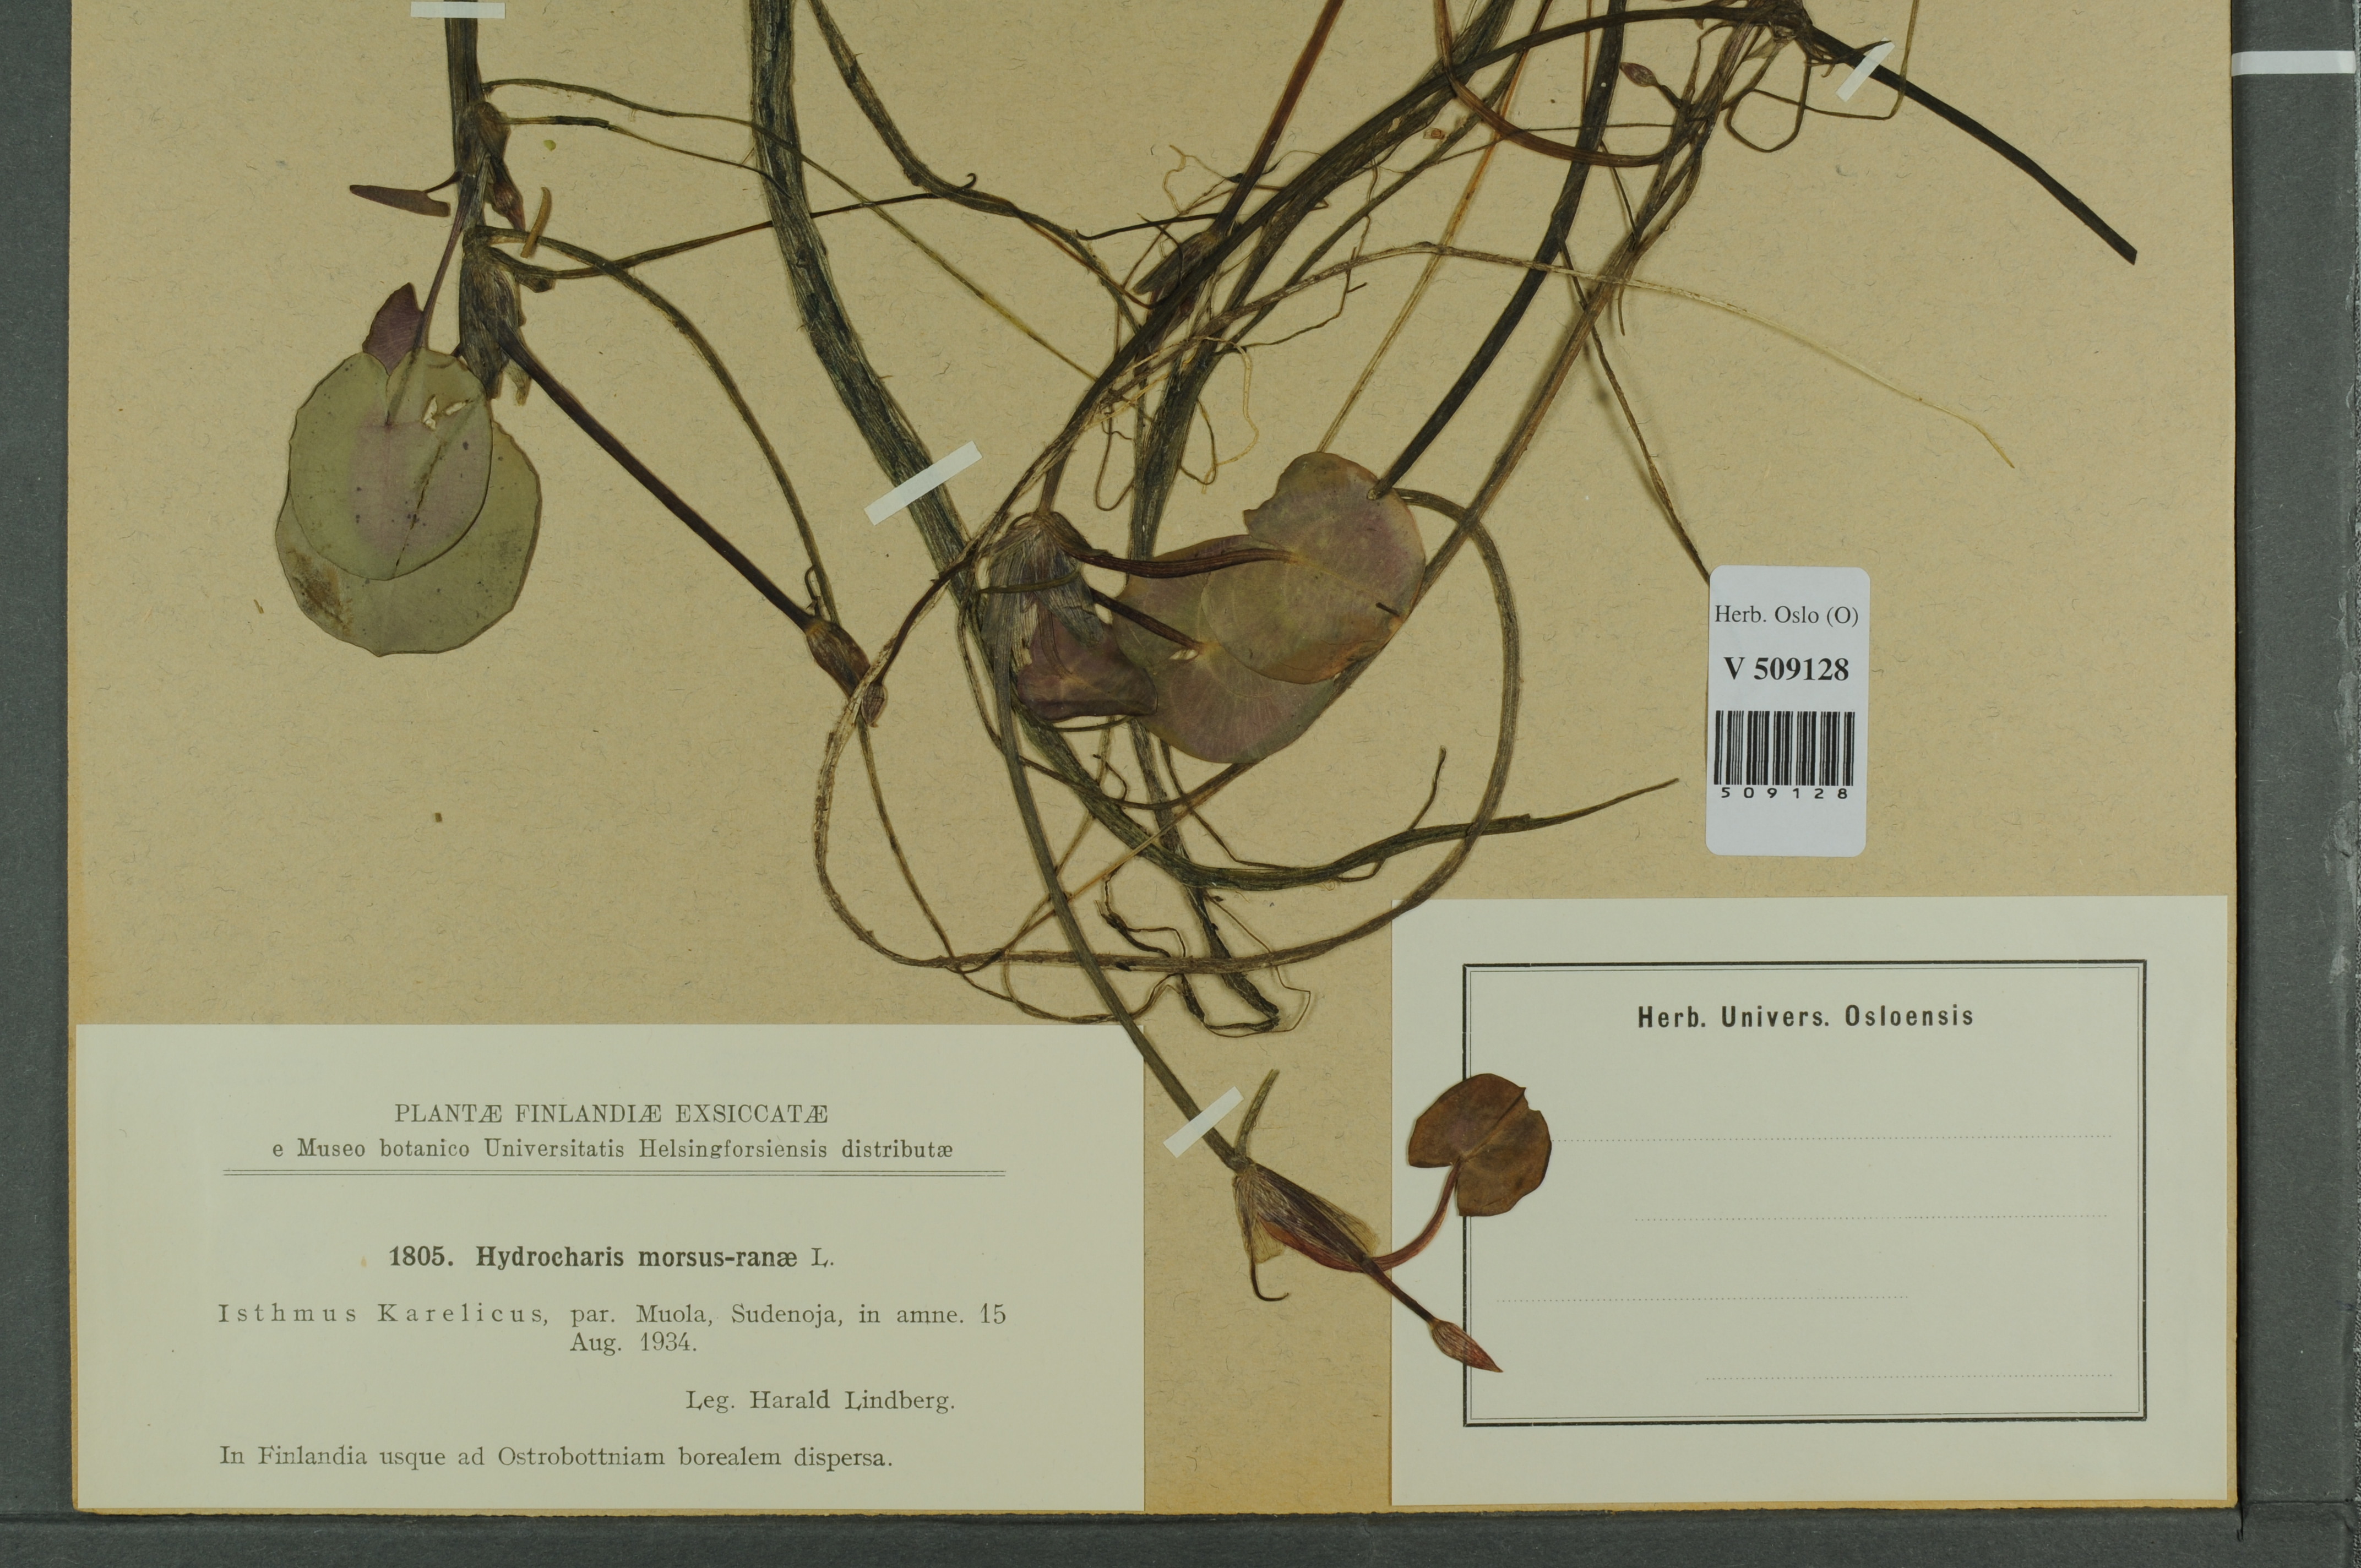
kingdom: Plantae
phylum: Tracheophyta
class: Liliopsida
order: Alismatales
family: Hydrocharitaceae
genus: Hydrocharis
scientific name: Hydrocharis morsus-ranae
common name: Frogbit
